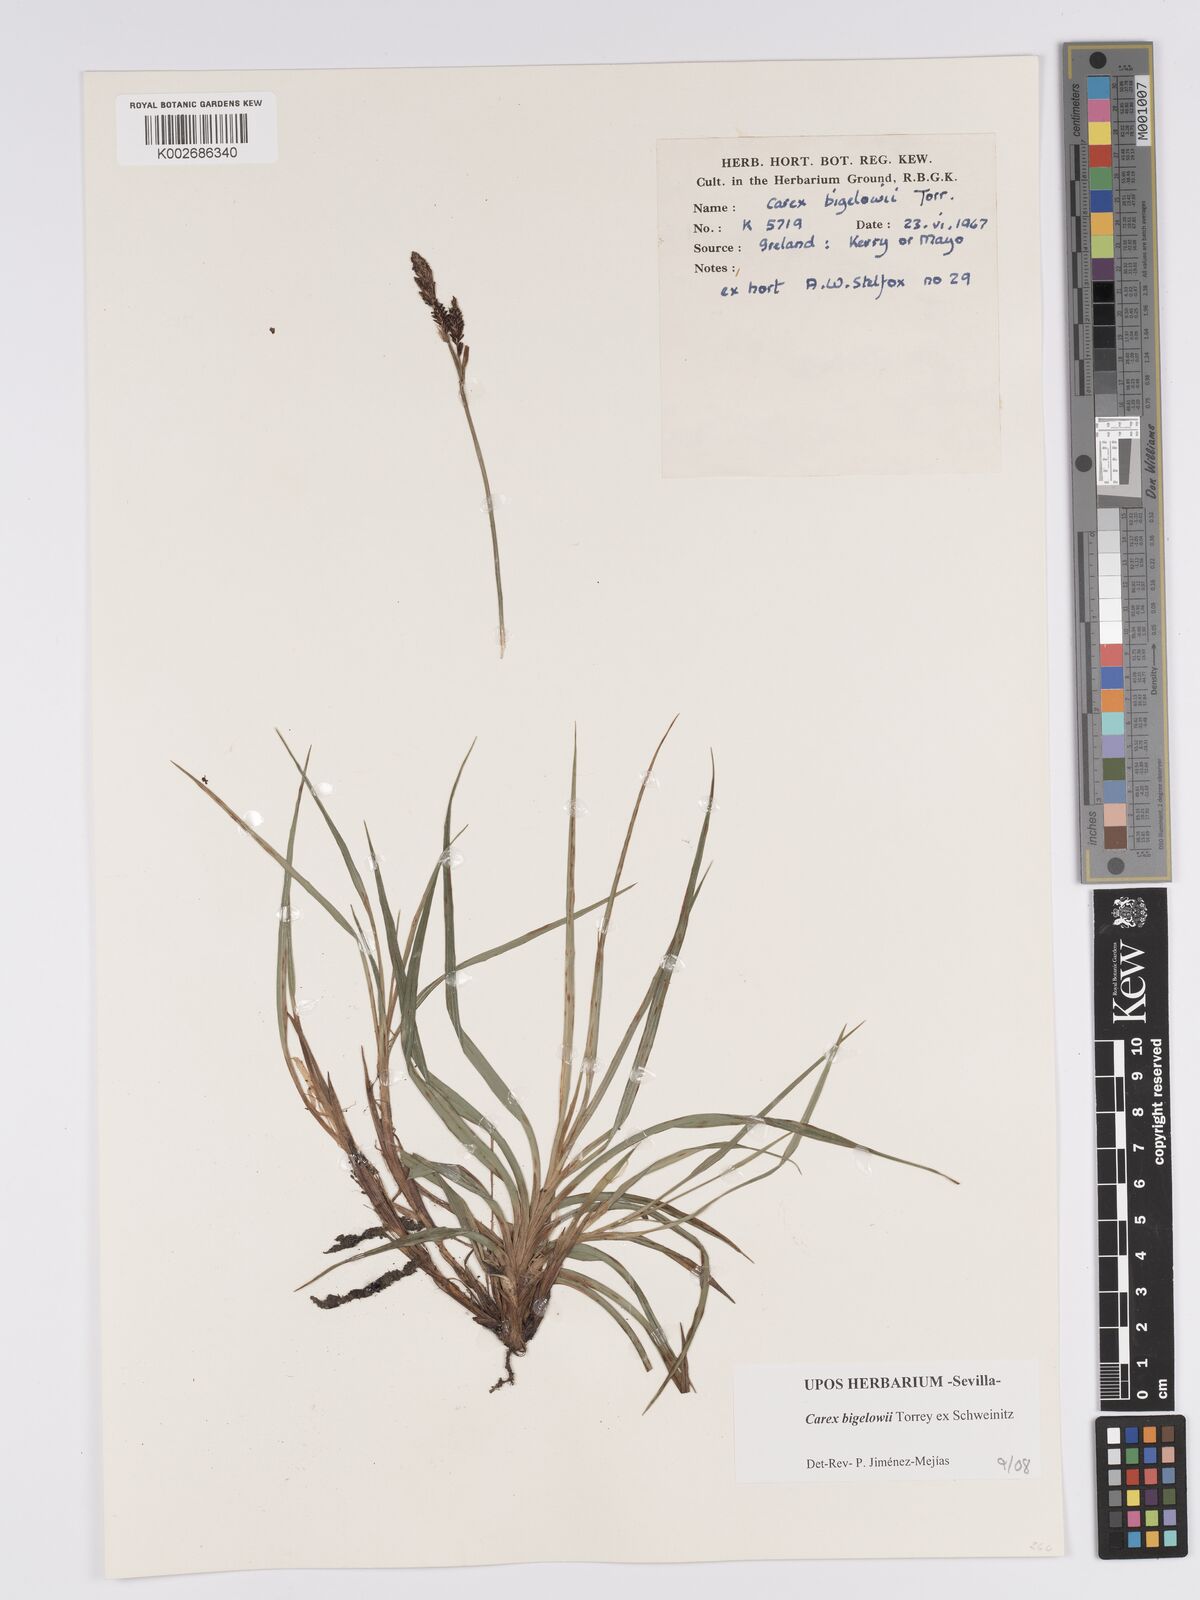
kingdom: Plantae
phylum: Tracheophyta
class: Liliopsida
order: Poales
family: Cyperaceae
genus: Carex
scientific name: Carex bigelowii
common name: Stiff sedge
